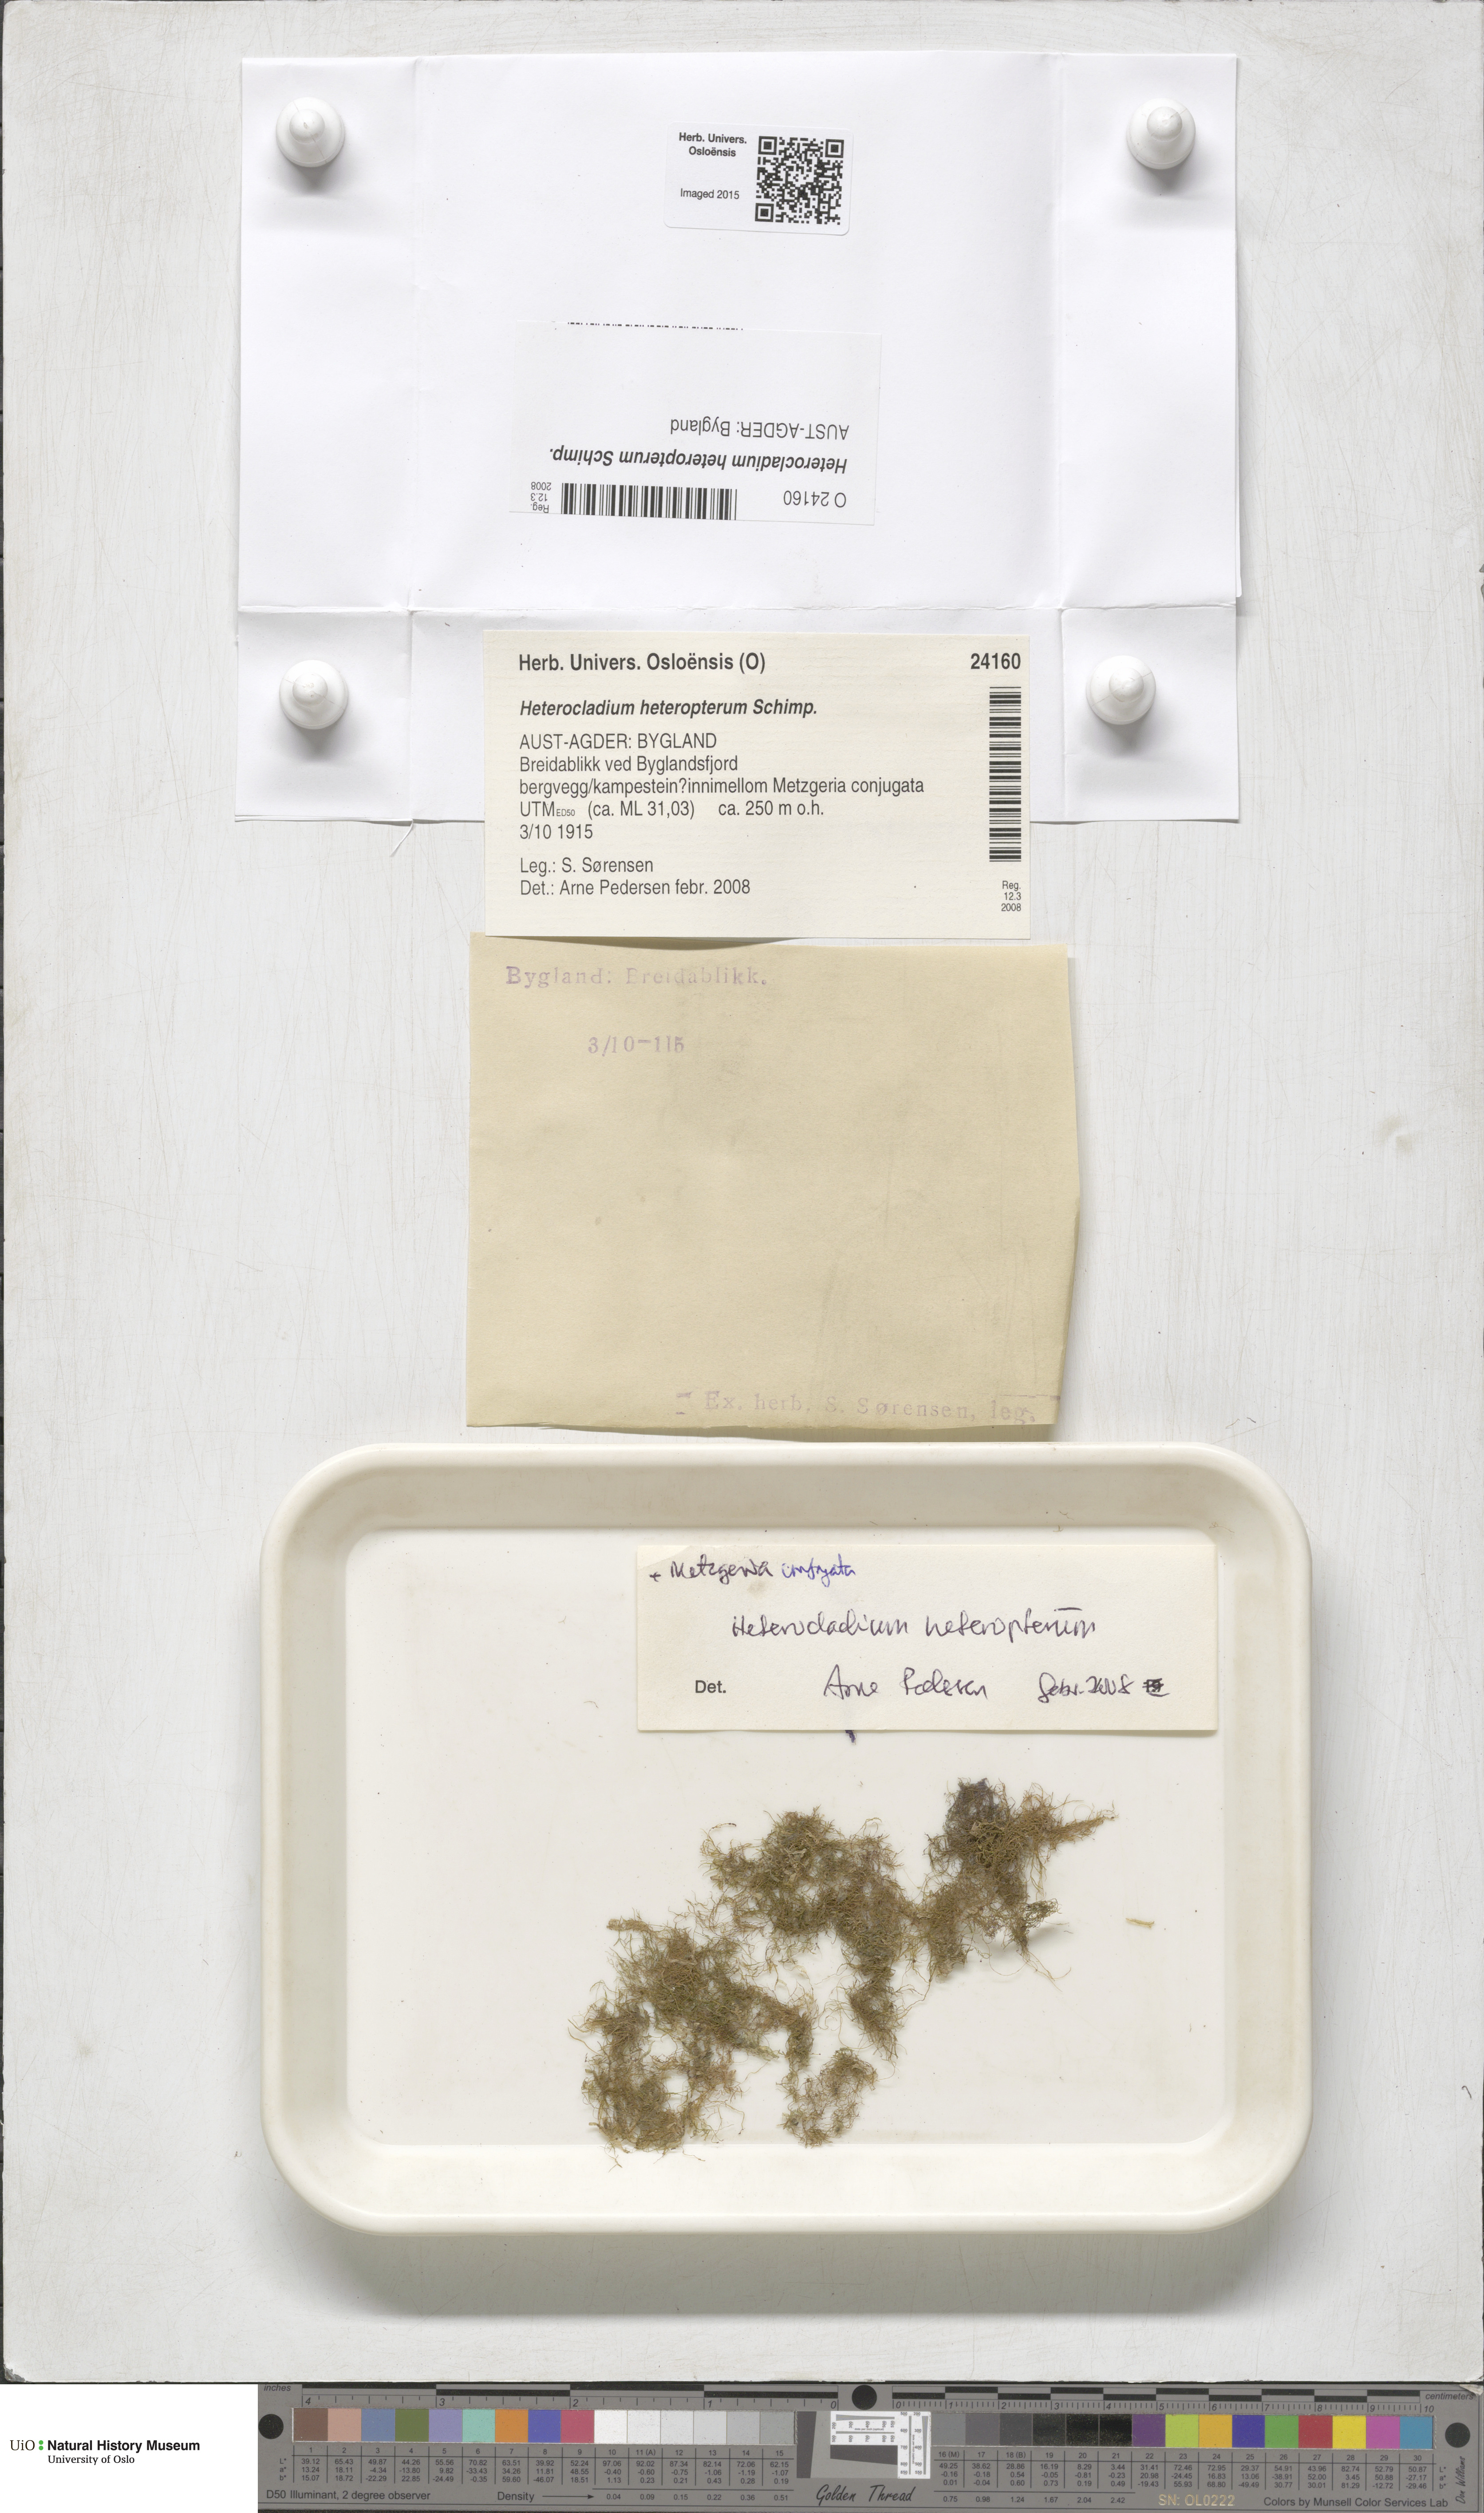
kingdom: Plantae
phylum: Bryophyta
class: Bryopsida
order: Hypnales
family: Lembophyllaceae
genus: Heterocladium
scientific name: Heterocladium heteropterum
